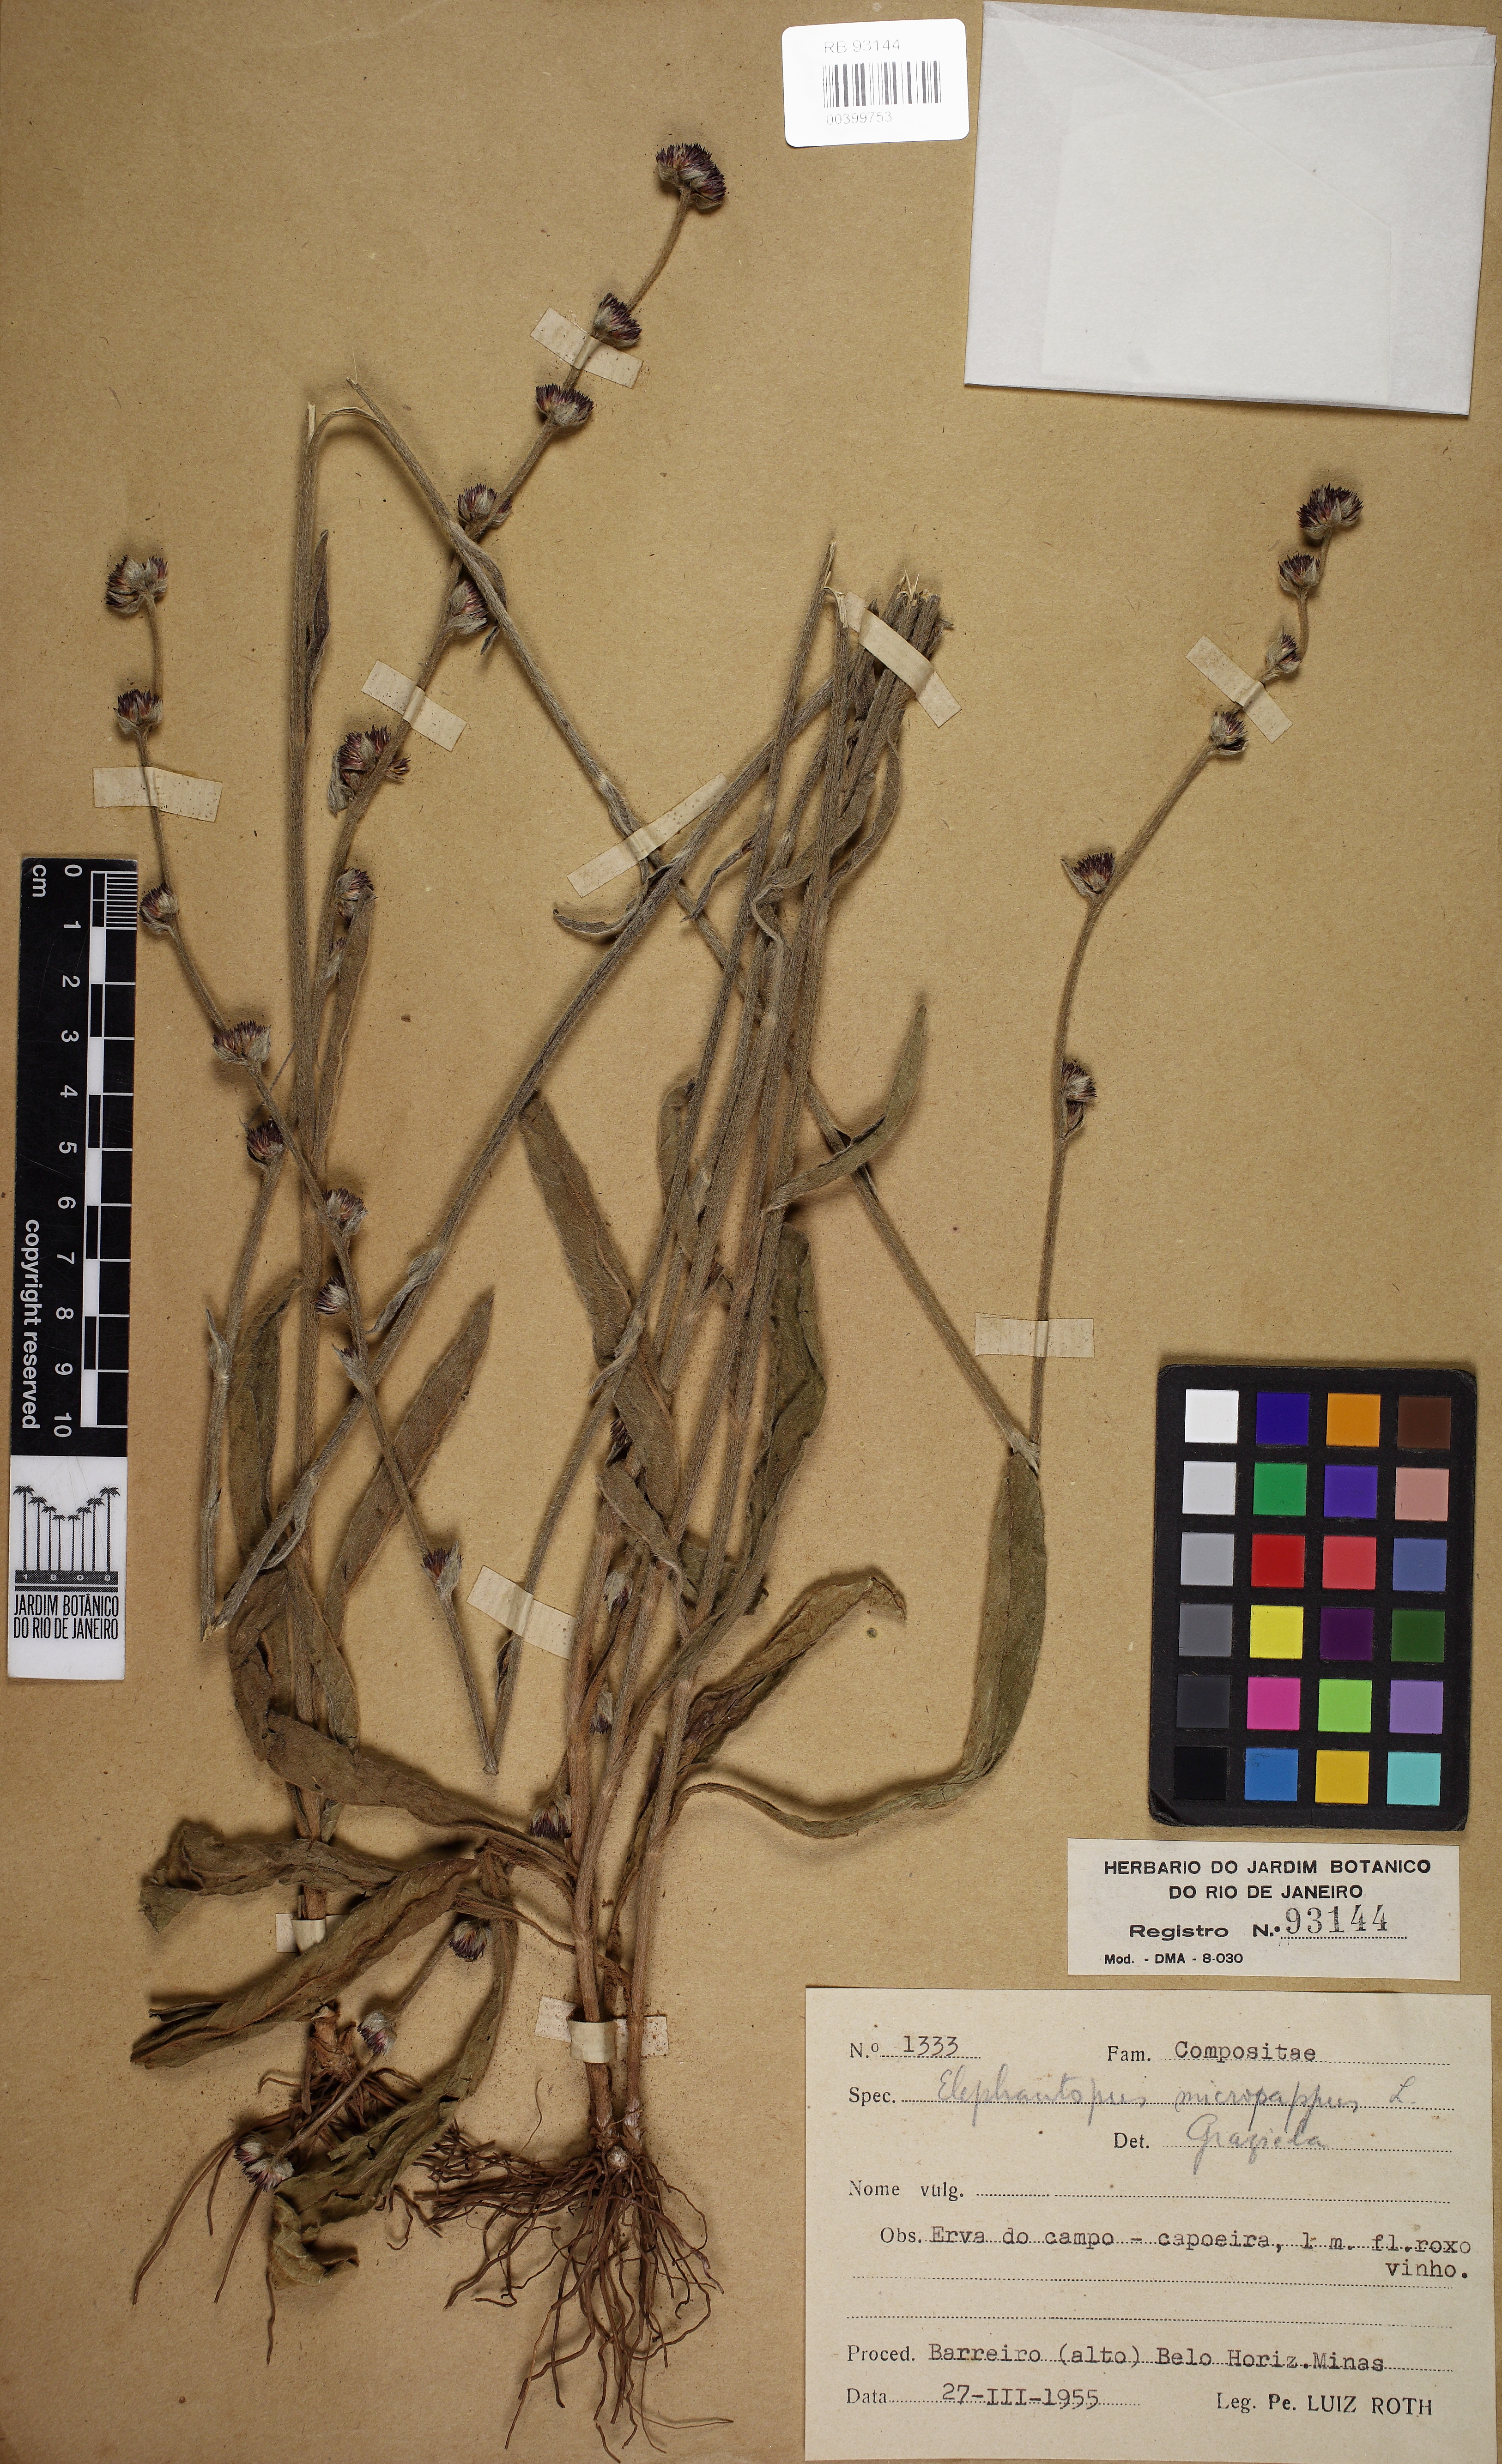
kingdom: Plantae
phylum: Tracheophyta
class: Magnoliopsida
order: Asterales
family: Asteraceae
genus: Elephantopus
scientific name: Elephantopus micropappus
